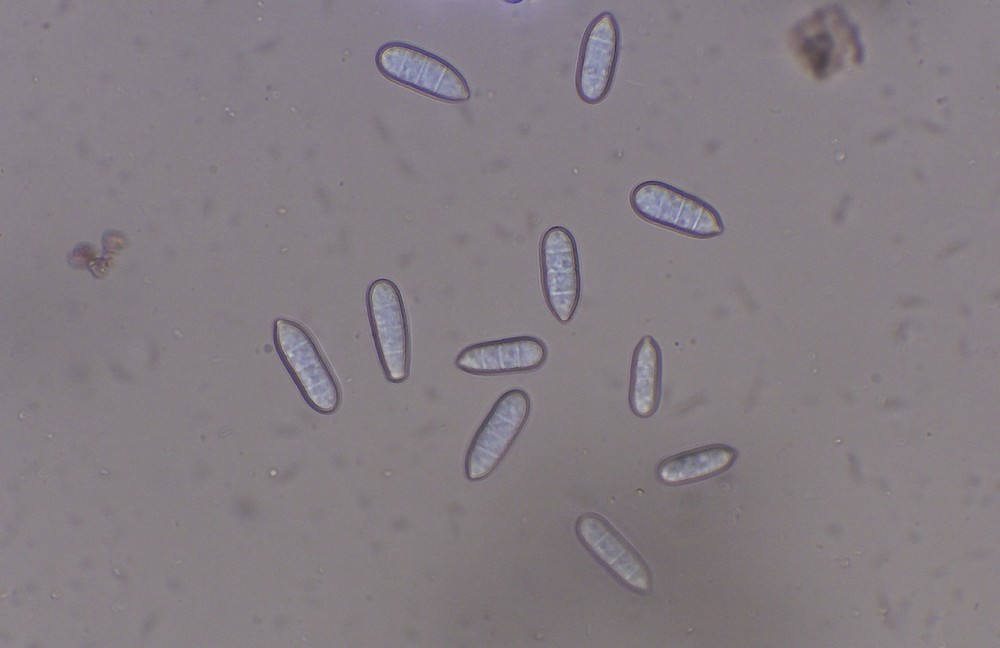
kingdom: Fungi
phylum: Ascomycota
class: Sordariomycetes
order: Hypocreales
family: Hypocreaceae
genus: Hypomyces
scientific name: Hypomyces rosellus
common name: rosa snylteskorpe
